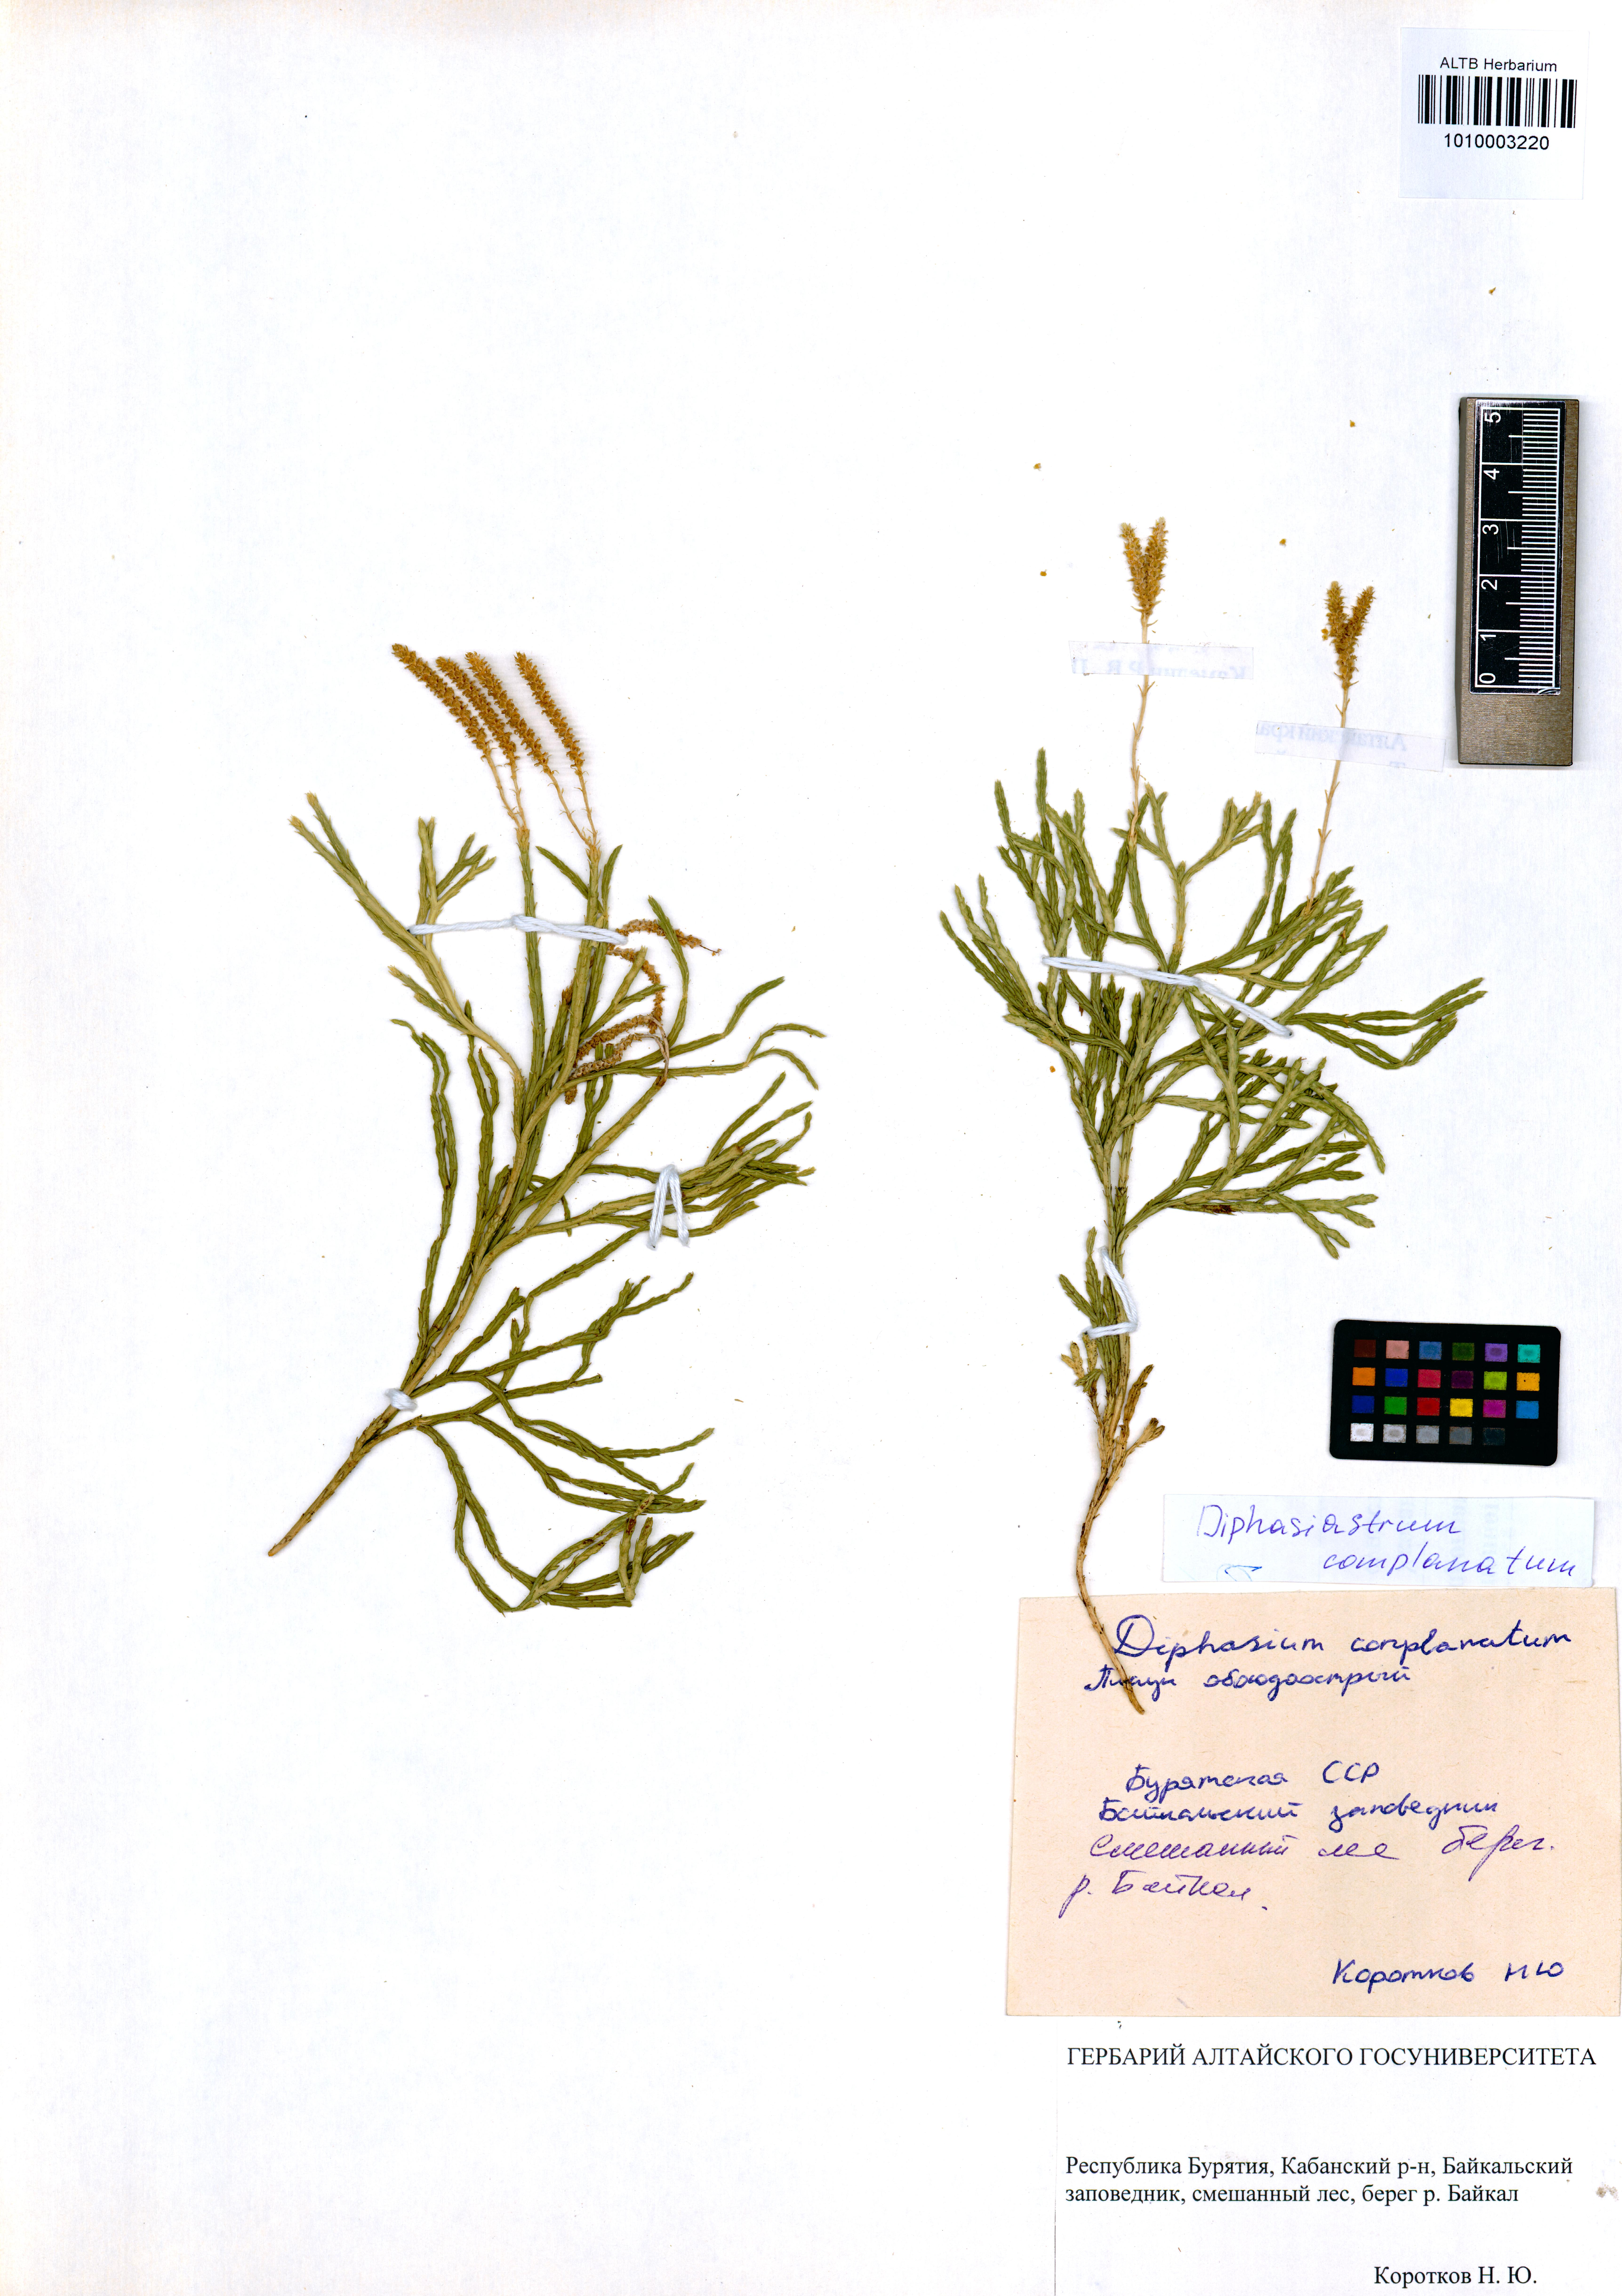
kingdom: Plantae
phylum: Tracheophyta
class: Lycopodiopsida
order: Lycopodiales
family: Lycopodiaceae
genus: Diphasiastrum
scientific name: Diphasiastrum complanatum
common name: Northern running-pine
